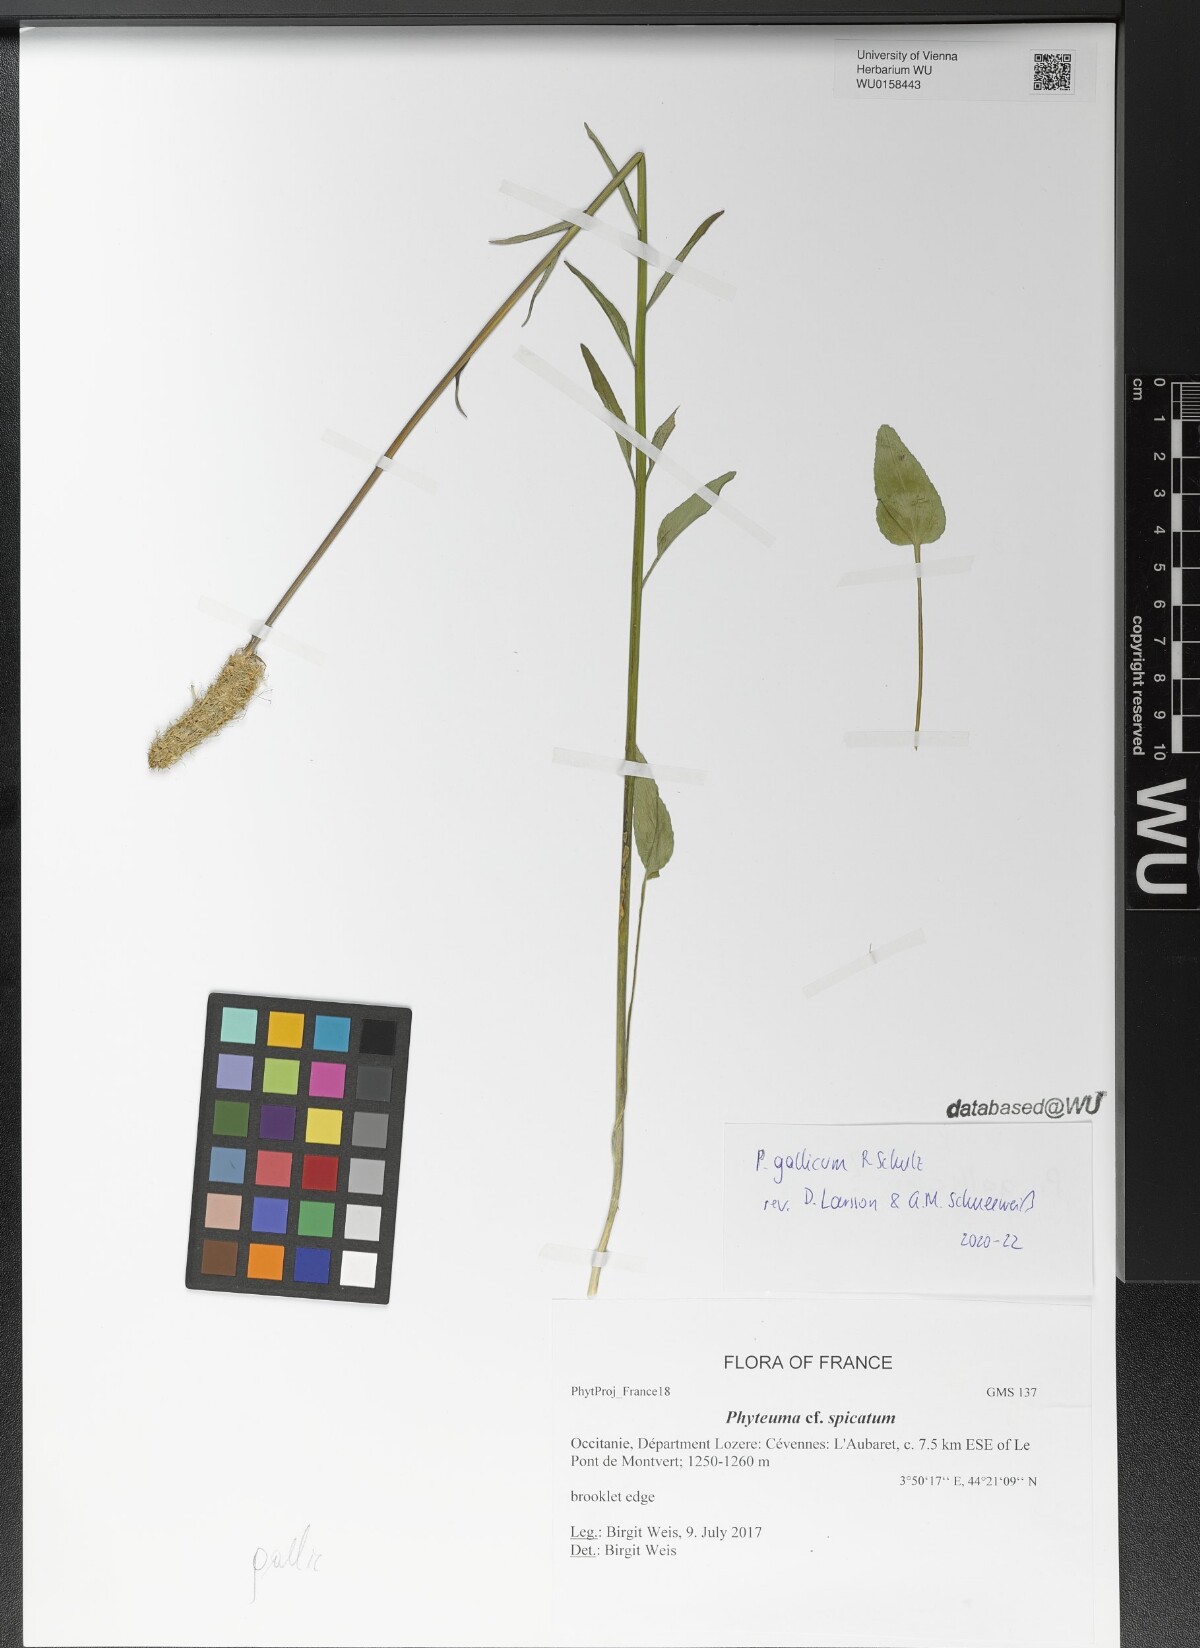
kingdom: Plantae
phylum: Tracheophyta
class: Magnoliopsida
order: Asterales
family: Campanulaceae
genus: Phyteuma
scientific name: Phyteuma gallicum
